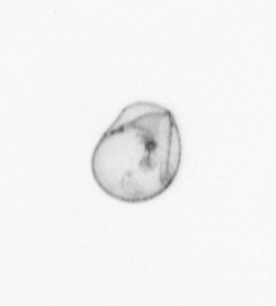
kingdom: Chromista
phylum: Myzozoa
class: Dinophyceae
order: Noctilucales
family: Noctilucaceae
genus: Noctiluca
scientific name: Noctiluca scintillans
